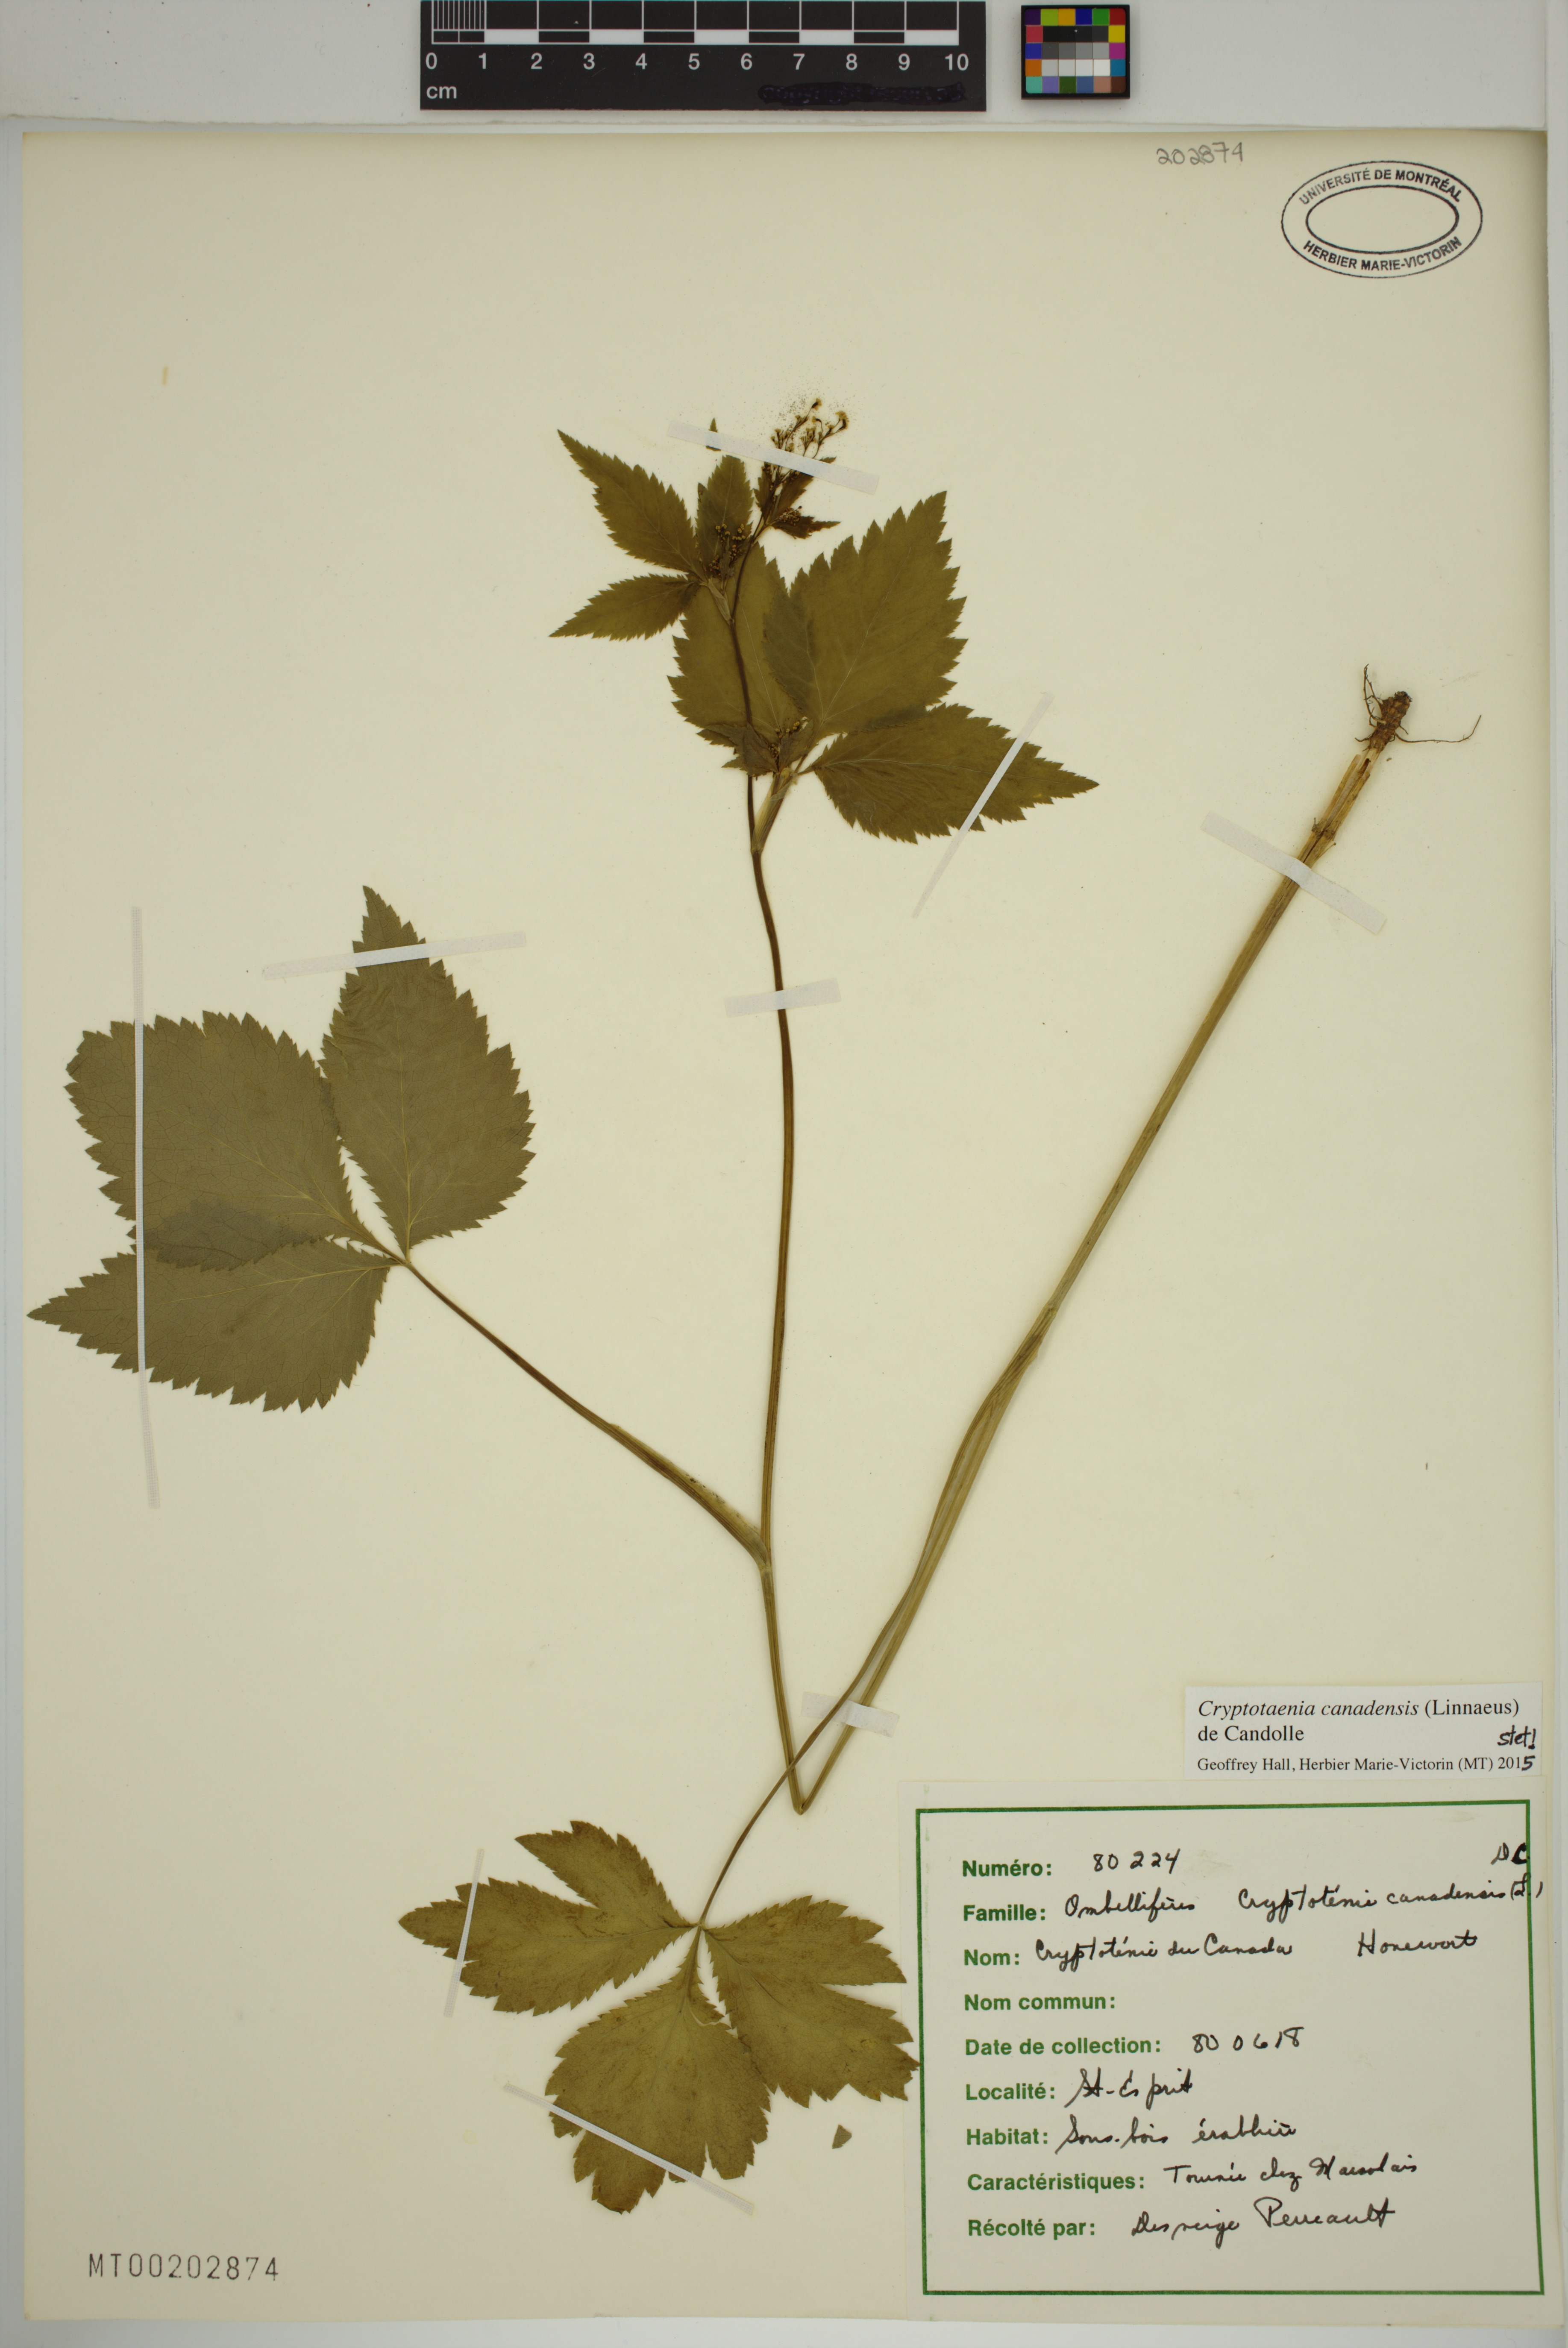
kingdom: Plantae
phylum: Tracheophyta
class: Magnoliopsida
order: Apiales
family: Apiaceae
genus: Cryptotaenia
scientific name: Cryptotaenia canadensis
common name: Honewort
